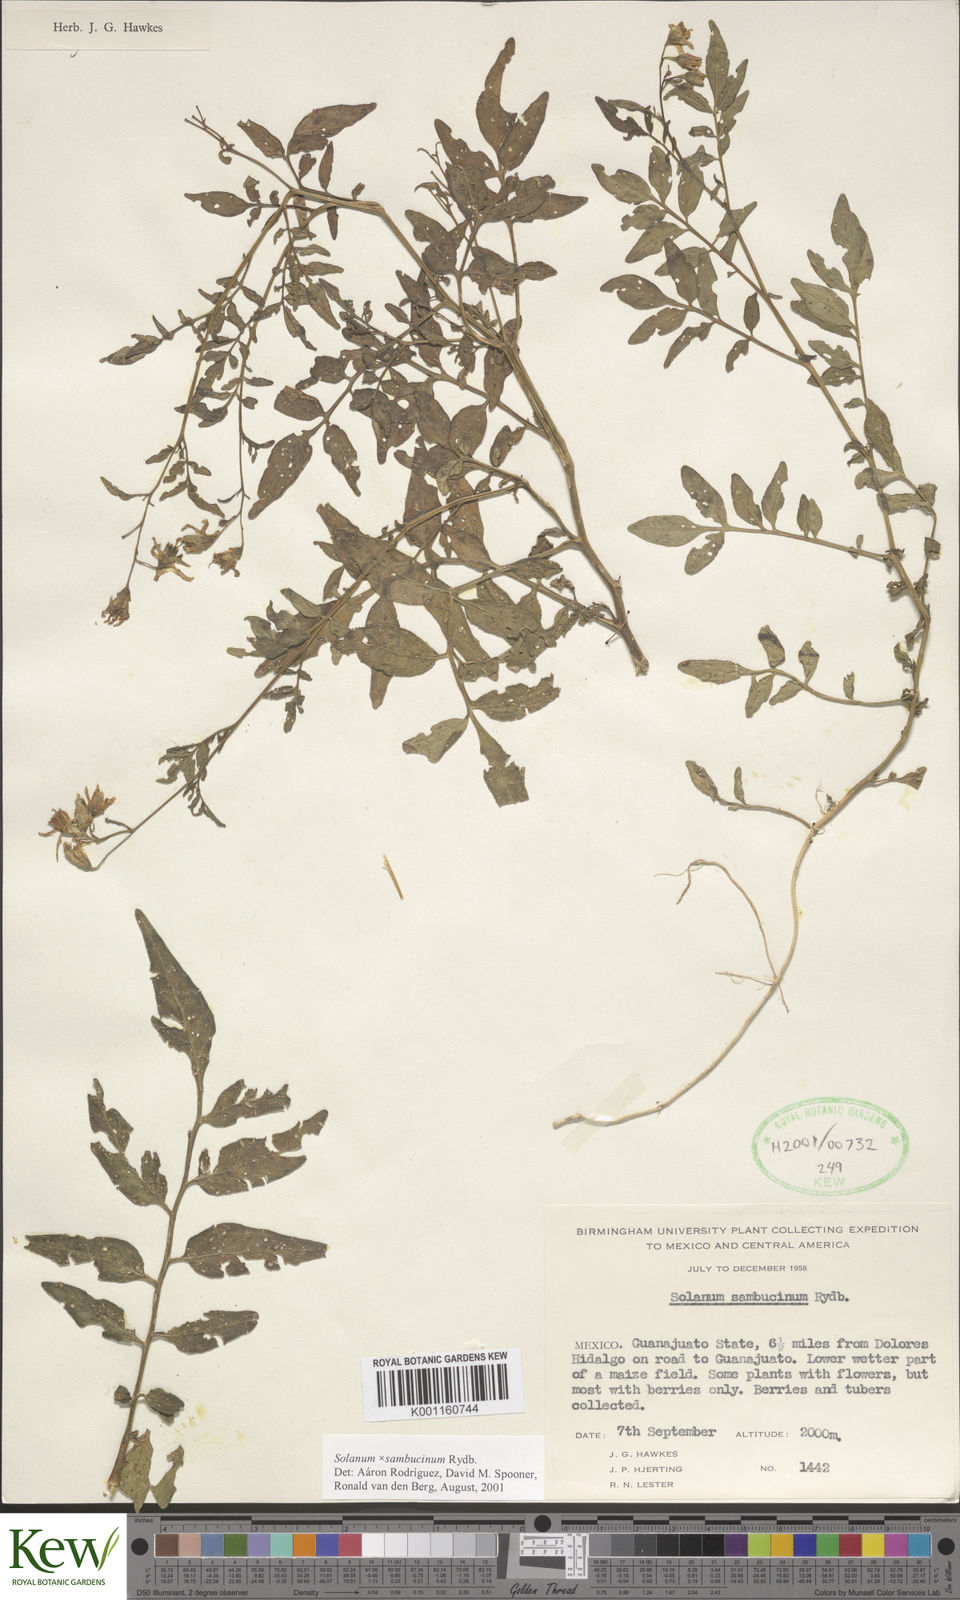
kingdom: Plantae
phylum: Tracheophyta
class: Magnoliopsida
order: Solanales
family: Solanaceae
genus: Solanum
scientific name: Solanum sambucinum
